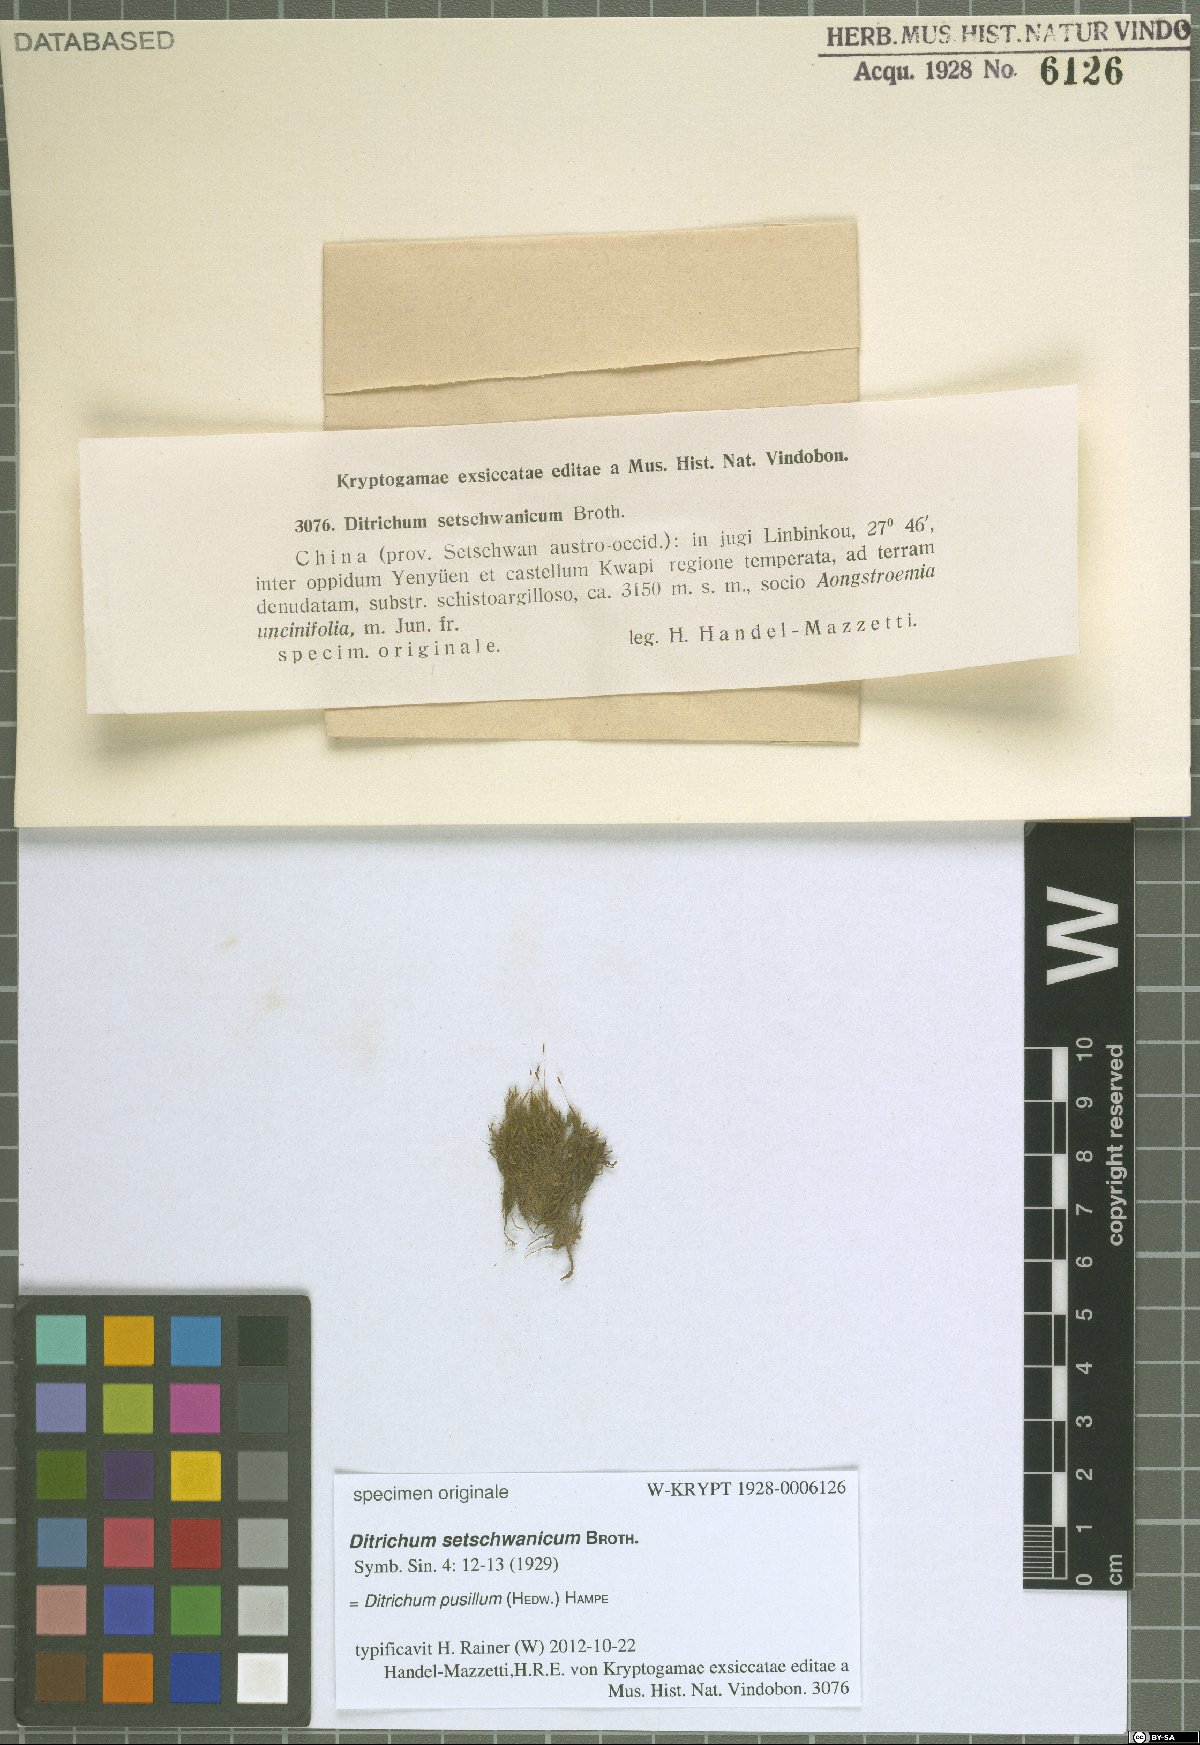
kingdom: Plantae
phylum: Bryophyta
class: Bryopsida
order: Dicranales
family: Ditrichaceae
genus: Ditrichum
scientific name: Ditrichum pusillum
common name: Brown cow-hair moss
